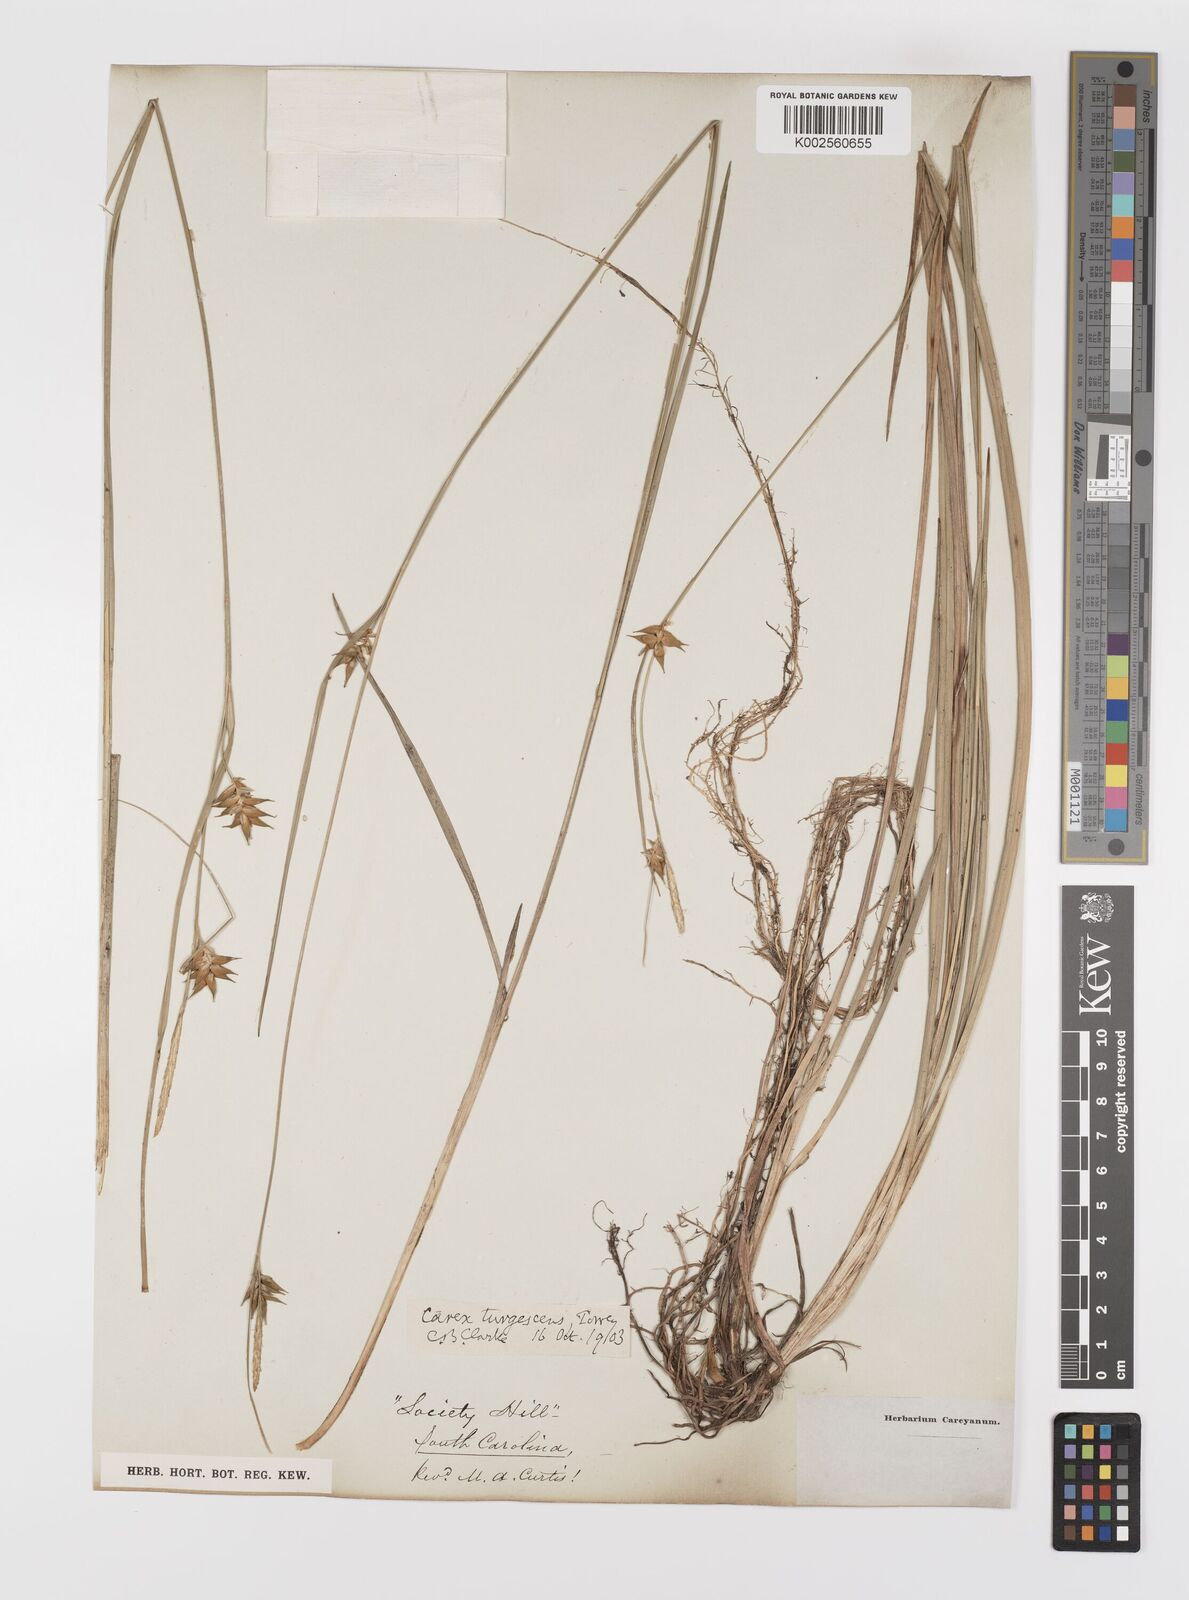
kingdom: Plantae
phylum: Tracheophyta
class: Liliopsida
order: Poales
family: Cyperaceae
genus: Carex
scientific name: Carex turgescens
